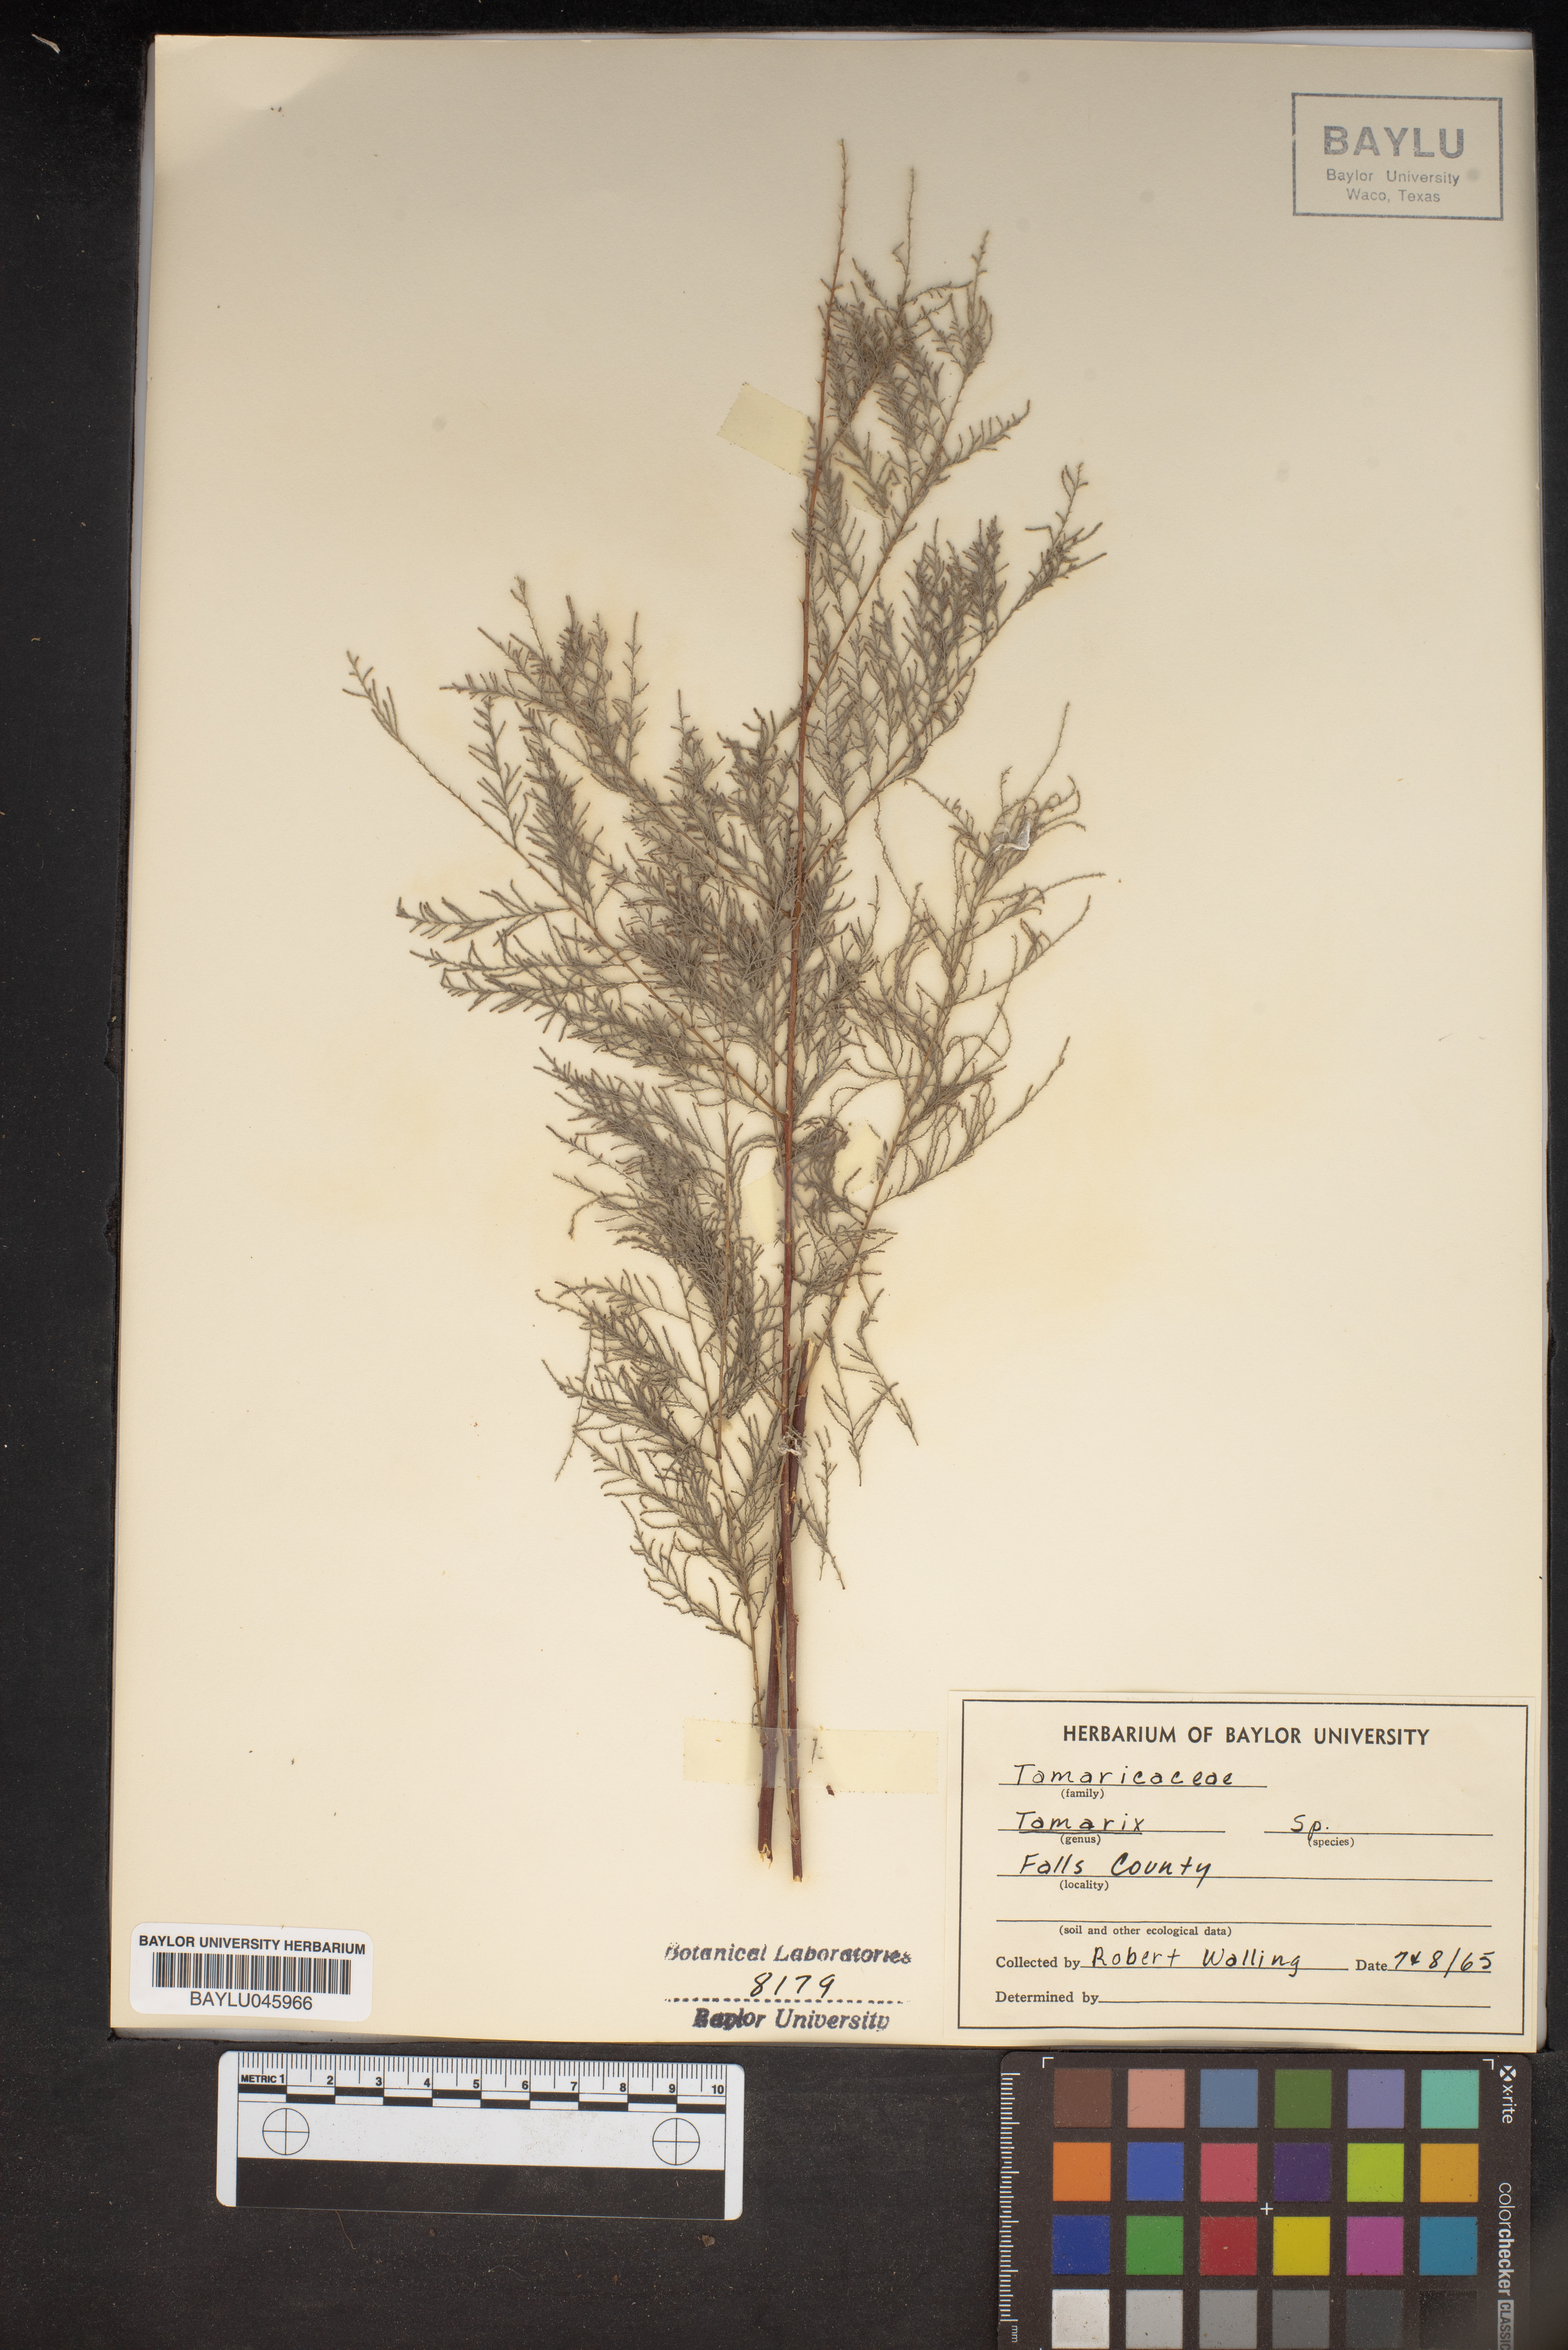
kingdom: Plantae
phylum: Tracheophyta
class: Magnoliopsida
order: Caryophyllales
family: Tamaricaceae
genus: Tamarix
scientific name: Tamarix
